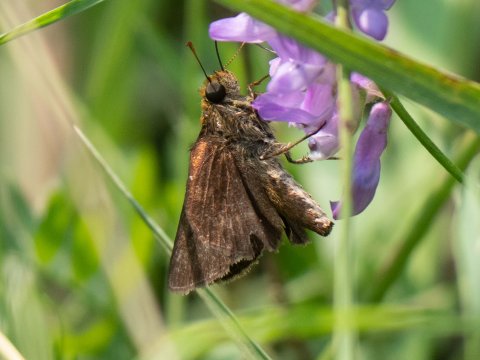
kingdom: Animalia
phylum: Arthropoda
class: Insecta
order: Lepidoptera
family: Hesperiidae
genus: Euphyes
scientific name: Euphyes vestris
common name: Dun Skipper
